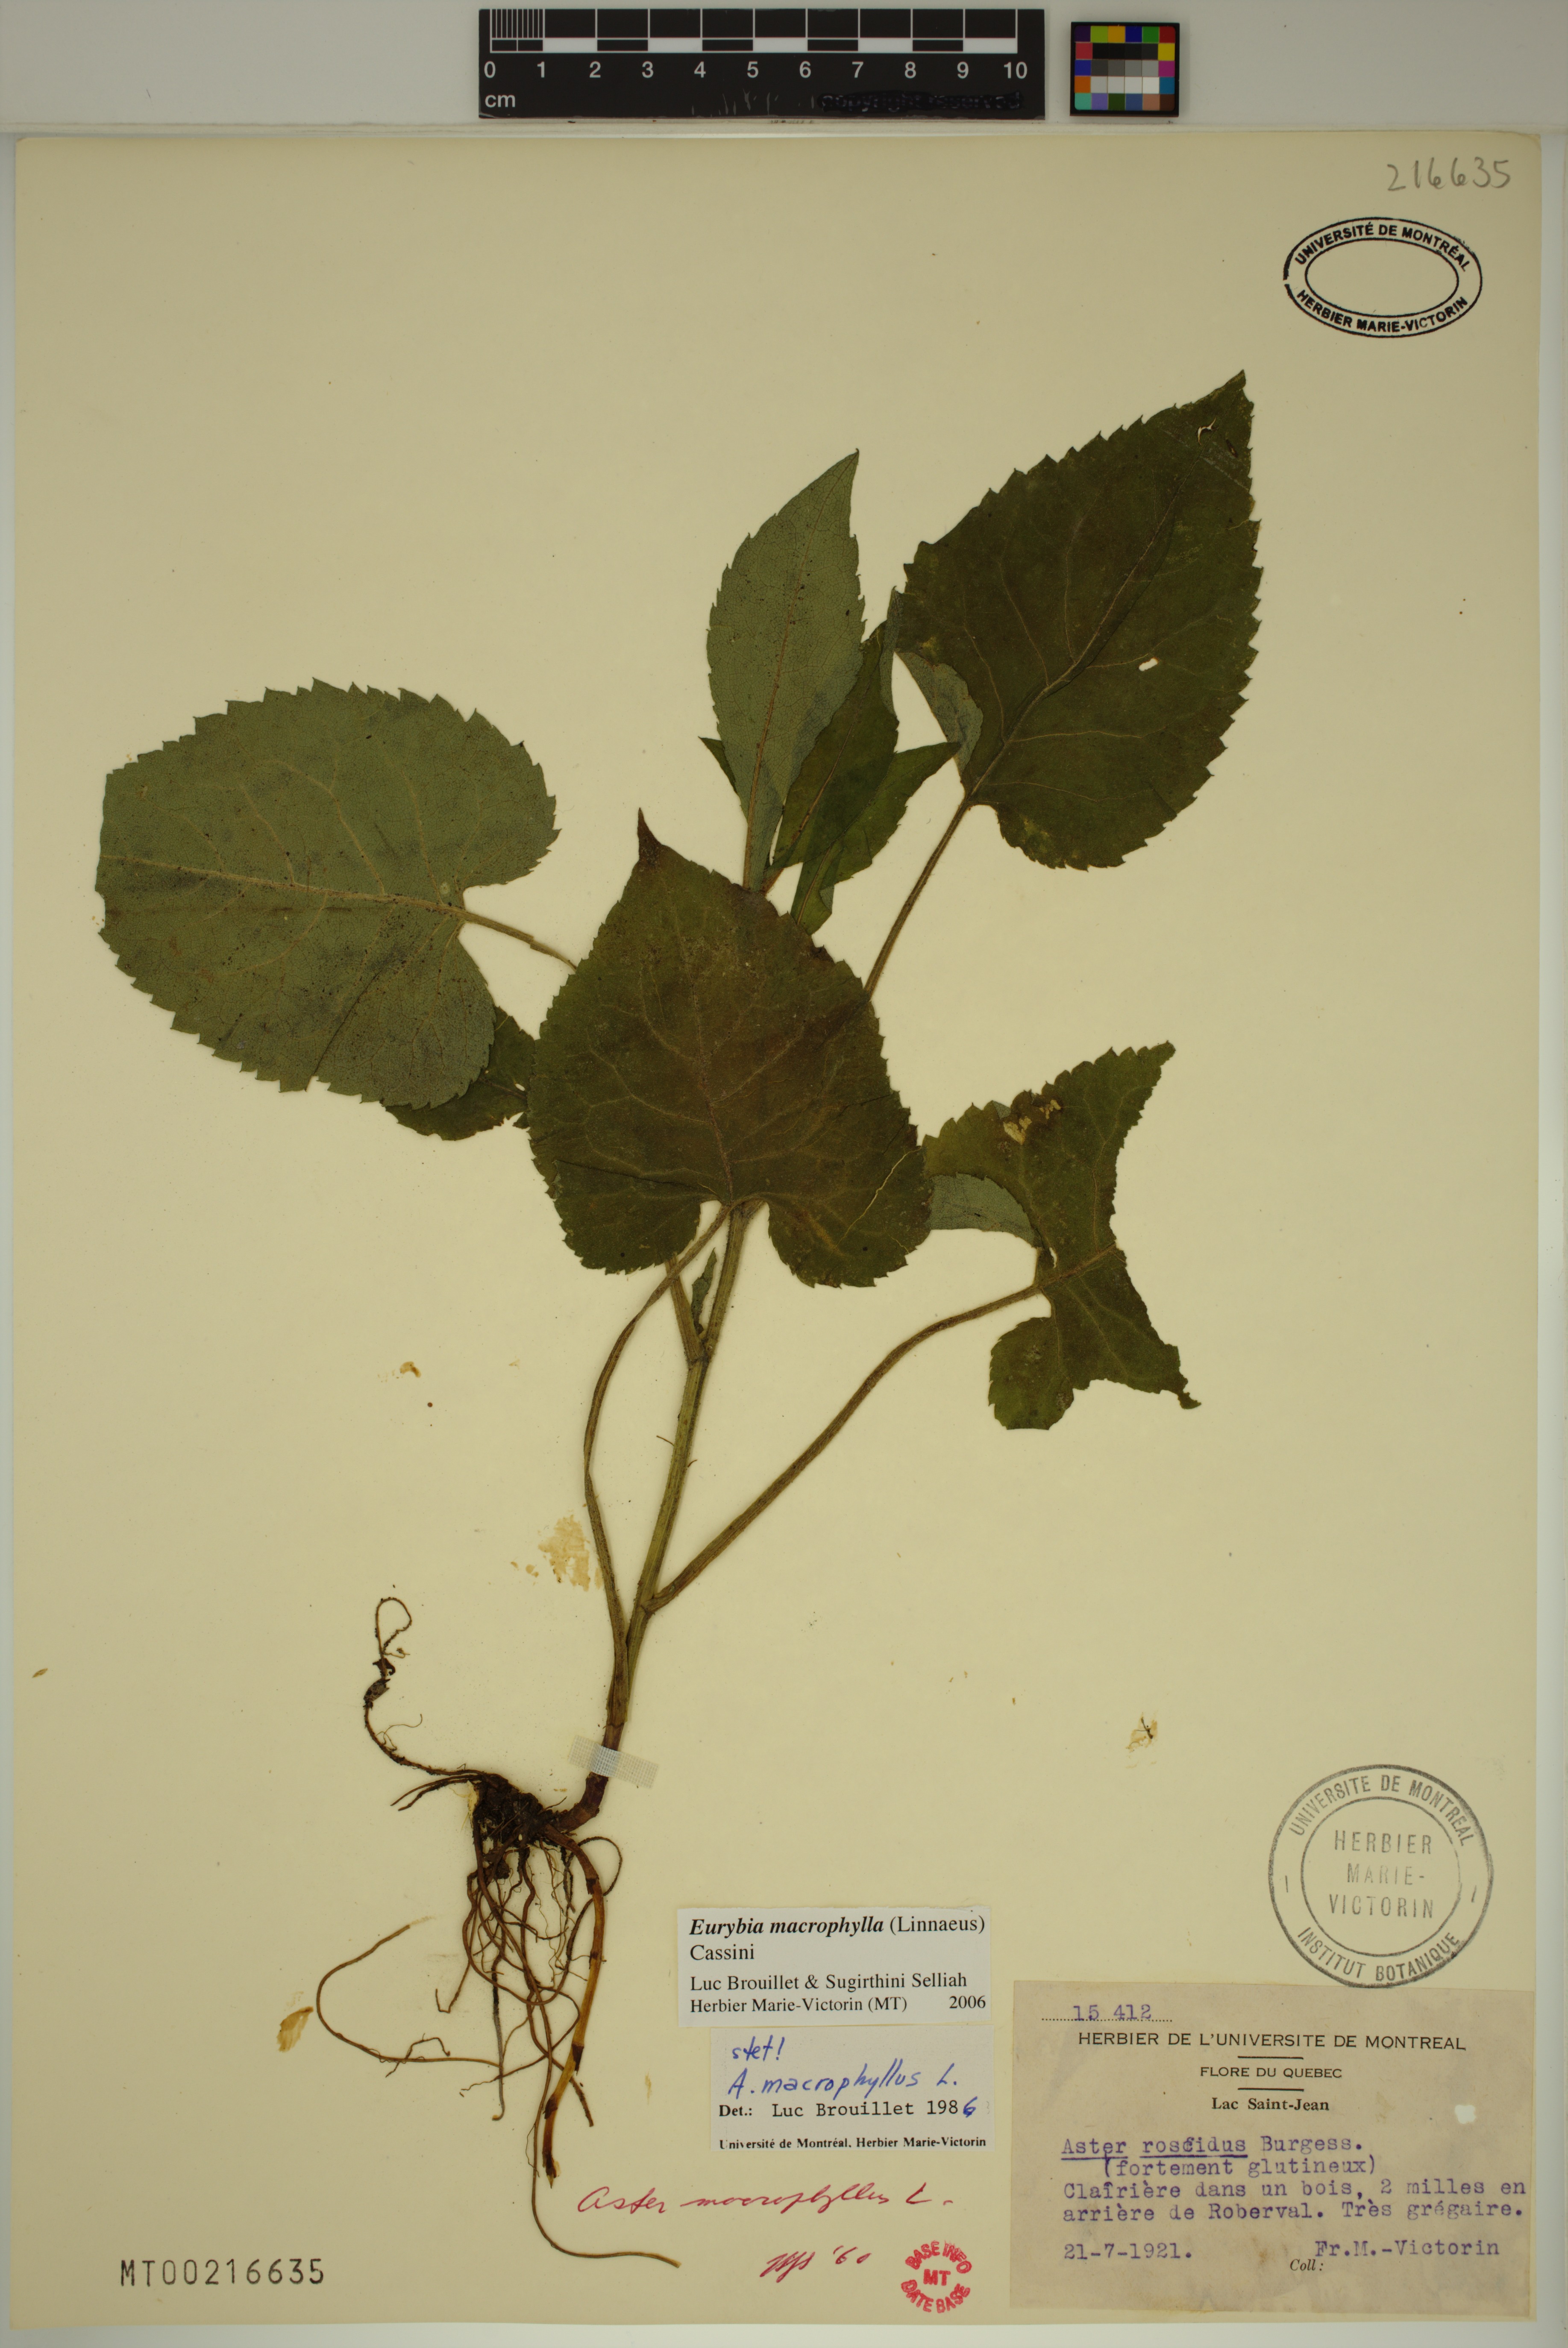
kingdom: Plantae
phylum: Tracheophyta
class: Magnoliopsida
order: Asterales
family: Asteraceae
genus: Eurybia
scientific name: Eurybia macrophylla
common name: Big-leaved aster
